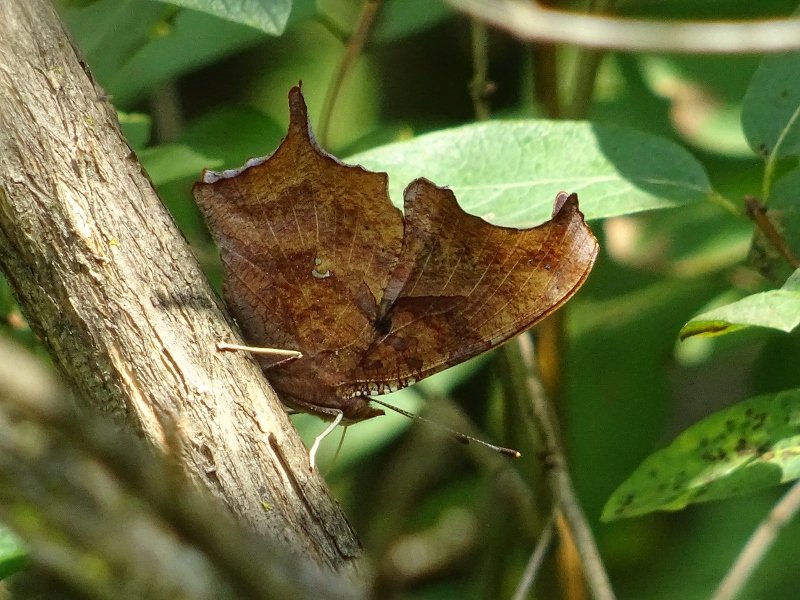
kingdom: Animalia
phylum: Arthropoda
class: Insecta
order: Lepidoptera
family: Nymphalidae
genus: Polygonia
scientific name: Polygonia interrogationis
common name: Question Mark
